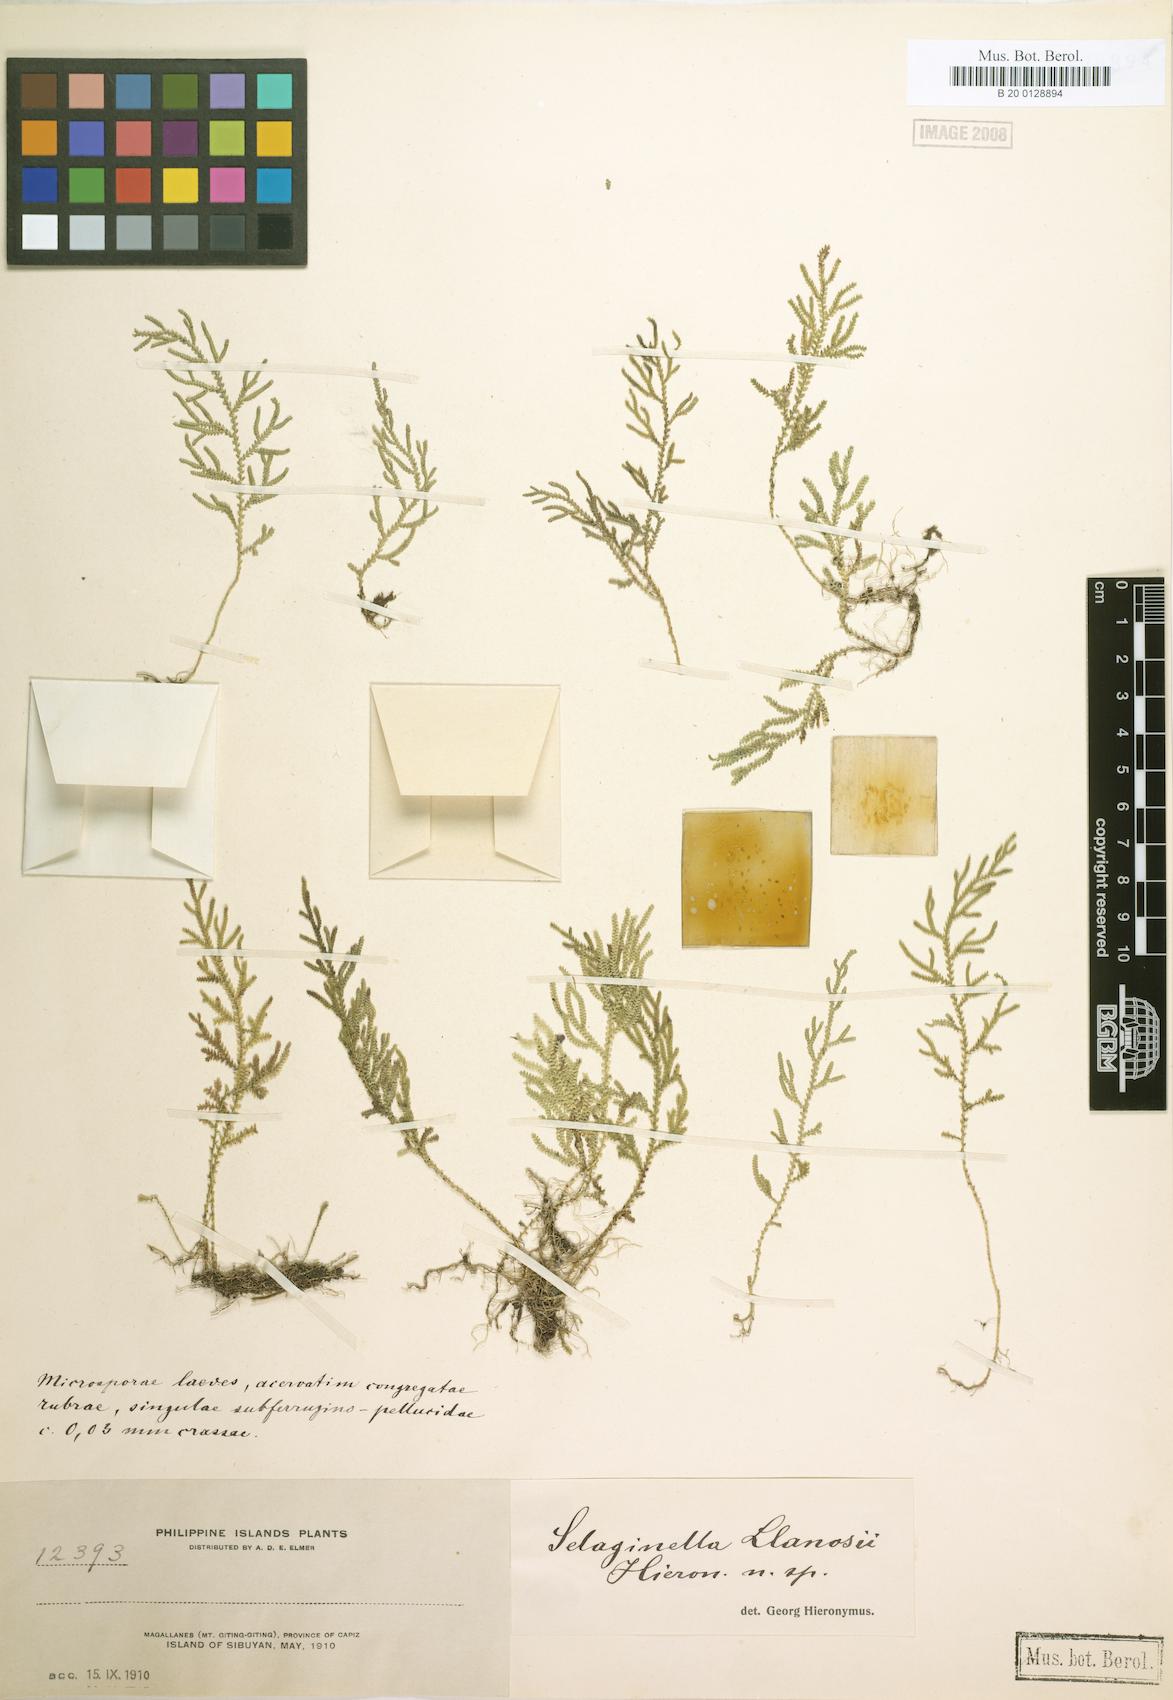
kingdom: Plantae
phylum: Tracheophyta
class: Lycopodiopsida
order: Selaginellales
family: Selaginellaceae
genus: Selaginella
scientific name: Selaginella llanosii
